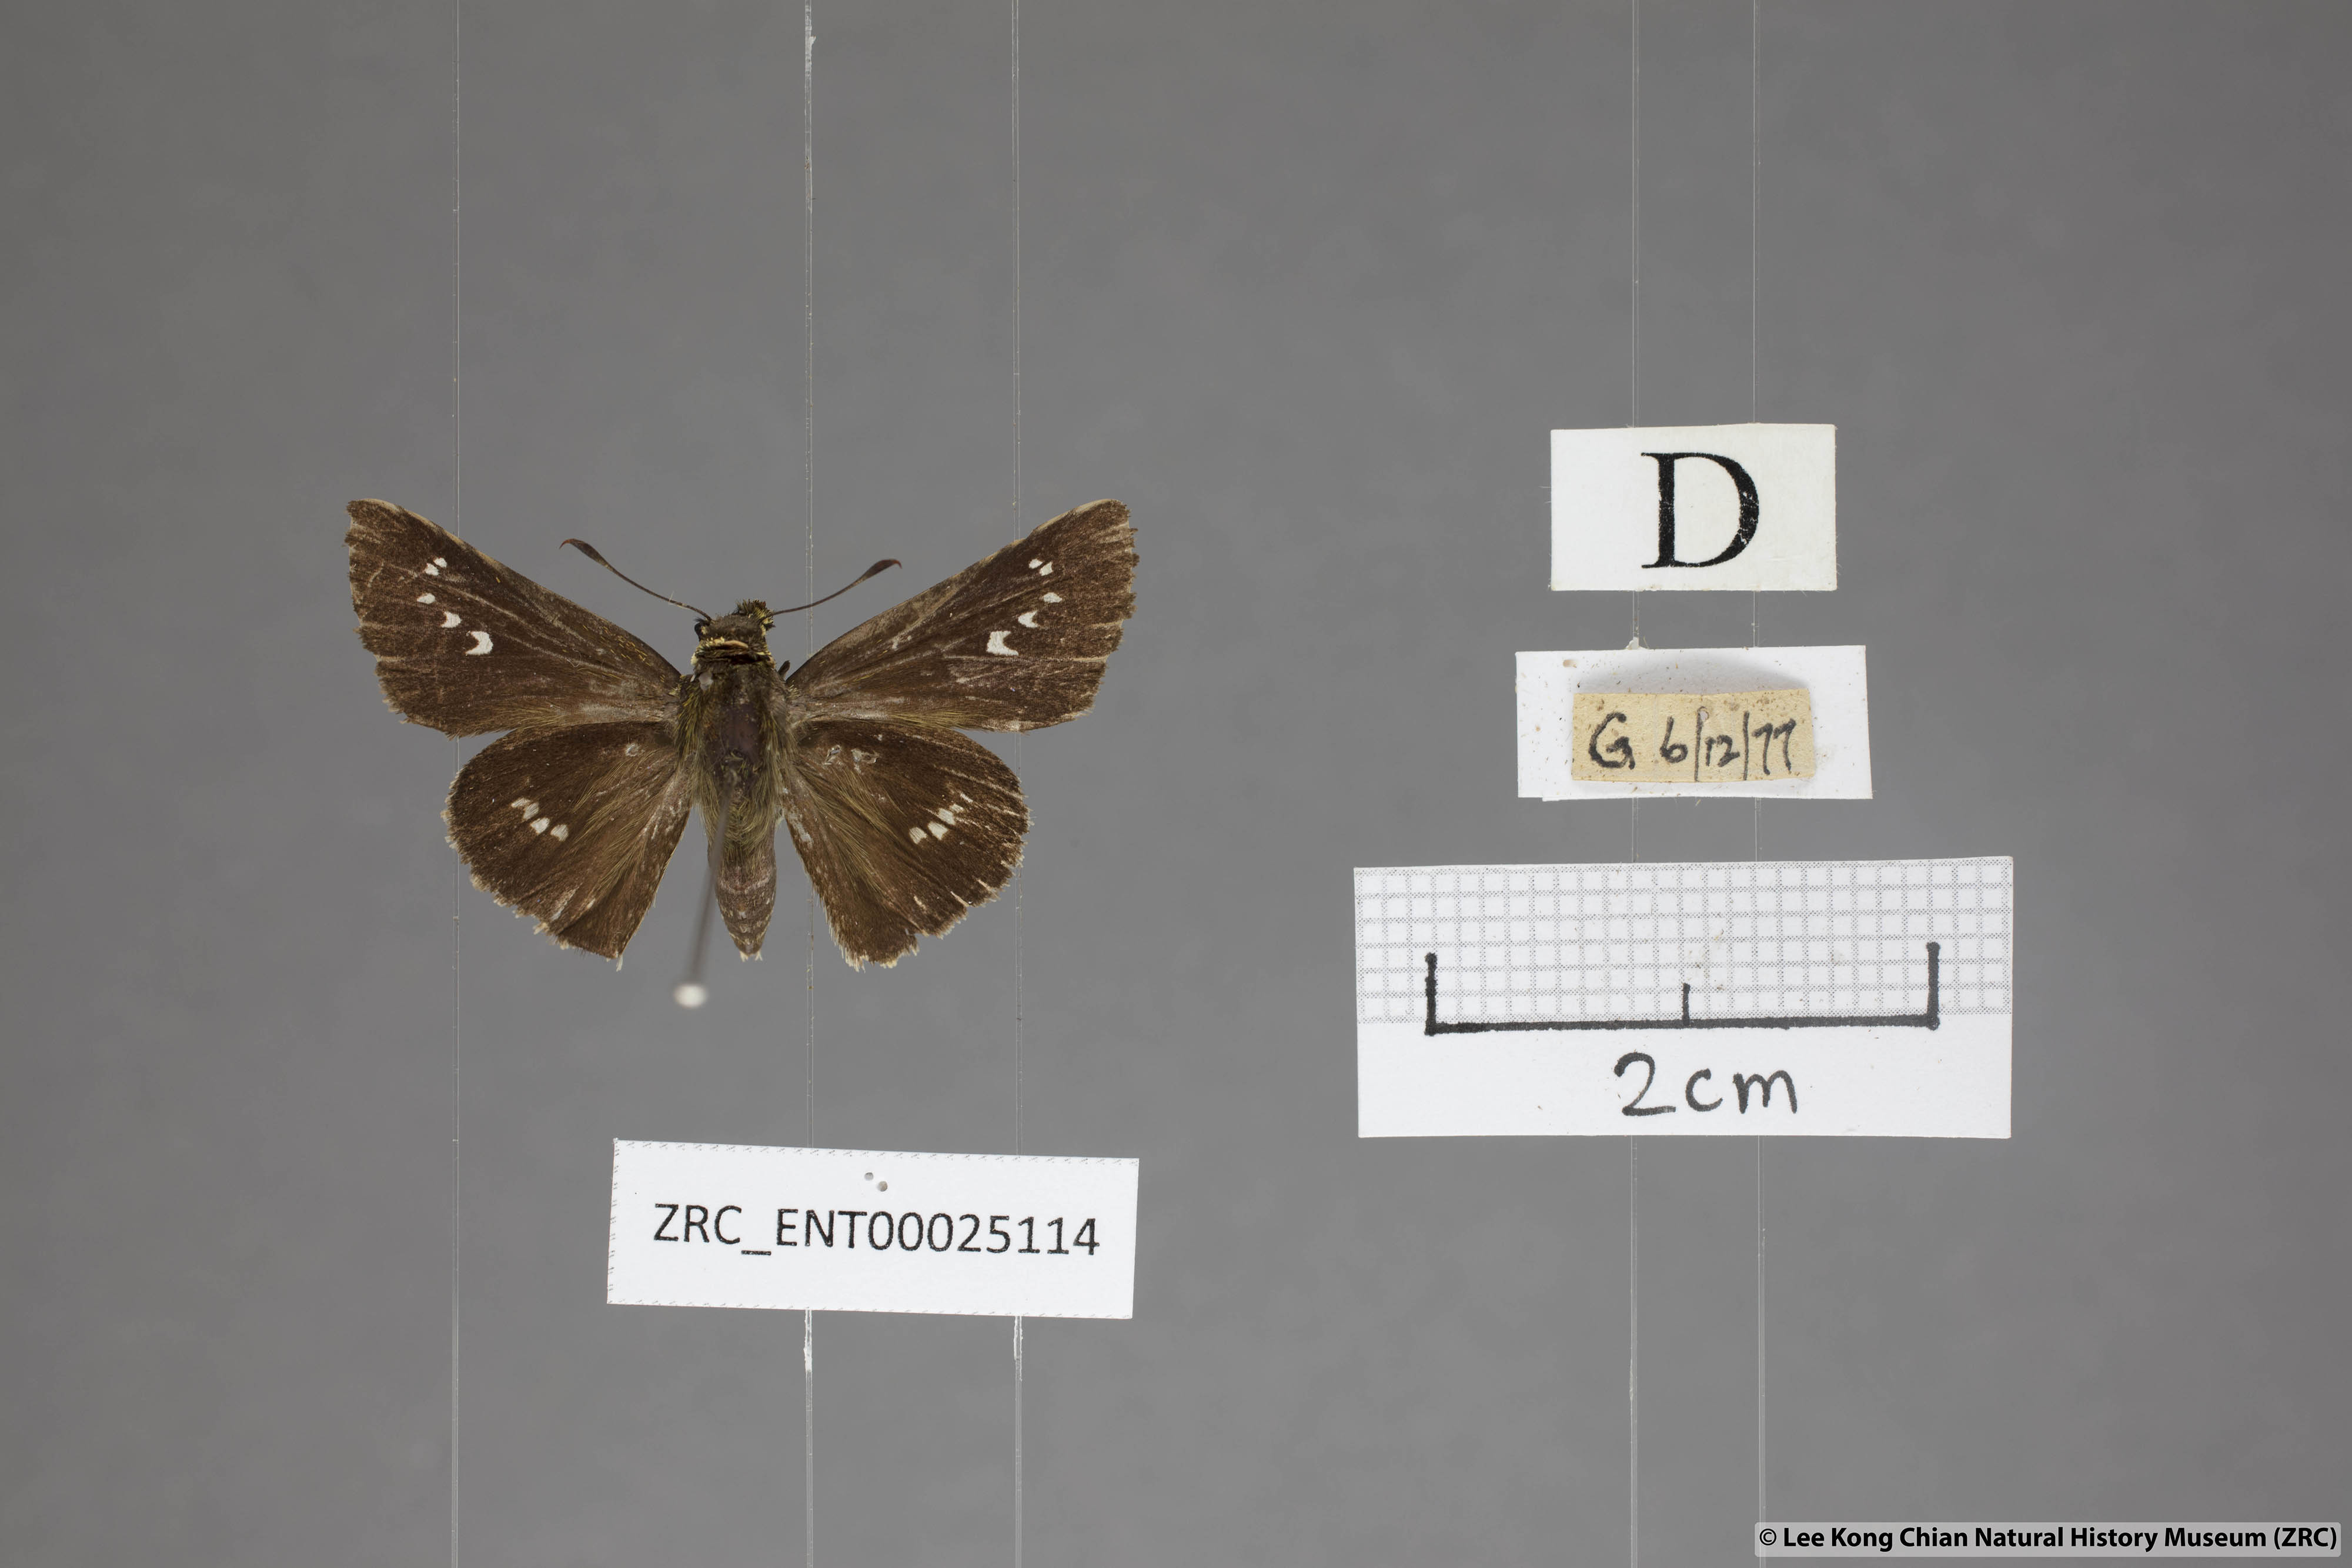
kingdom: Animalia
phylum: Arthropoda
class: Insecta
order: Lepidoptera
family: Hesperiidae
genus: Parnara
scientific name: Parnara apostata
